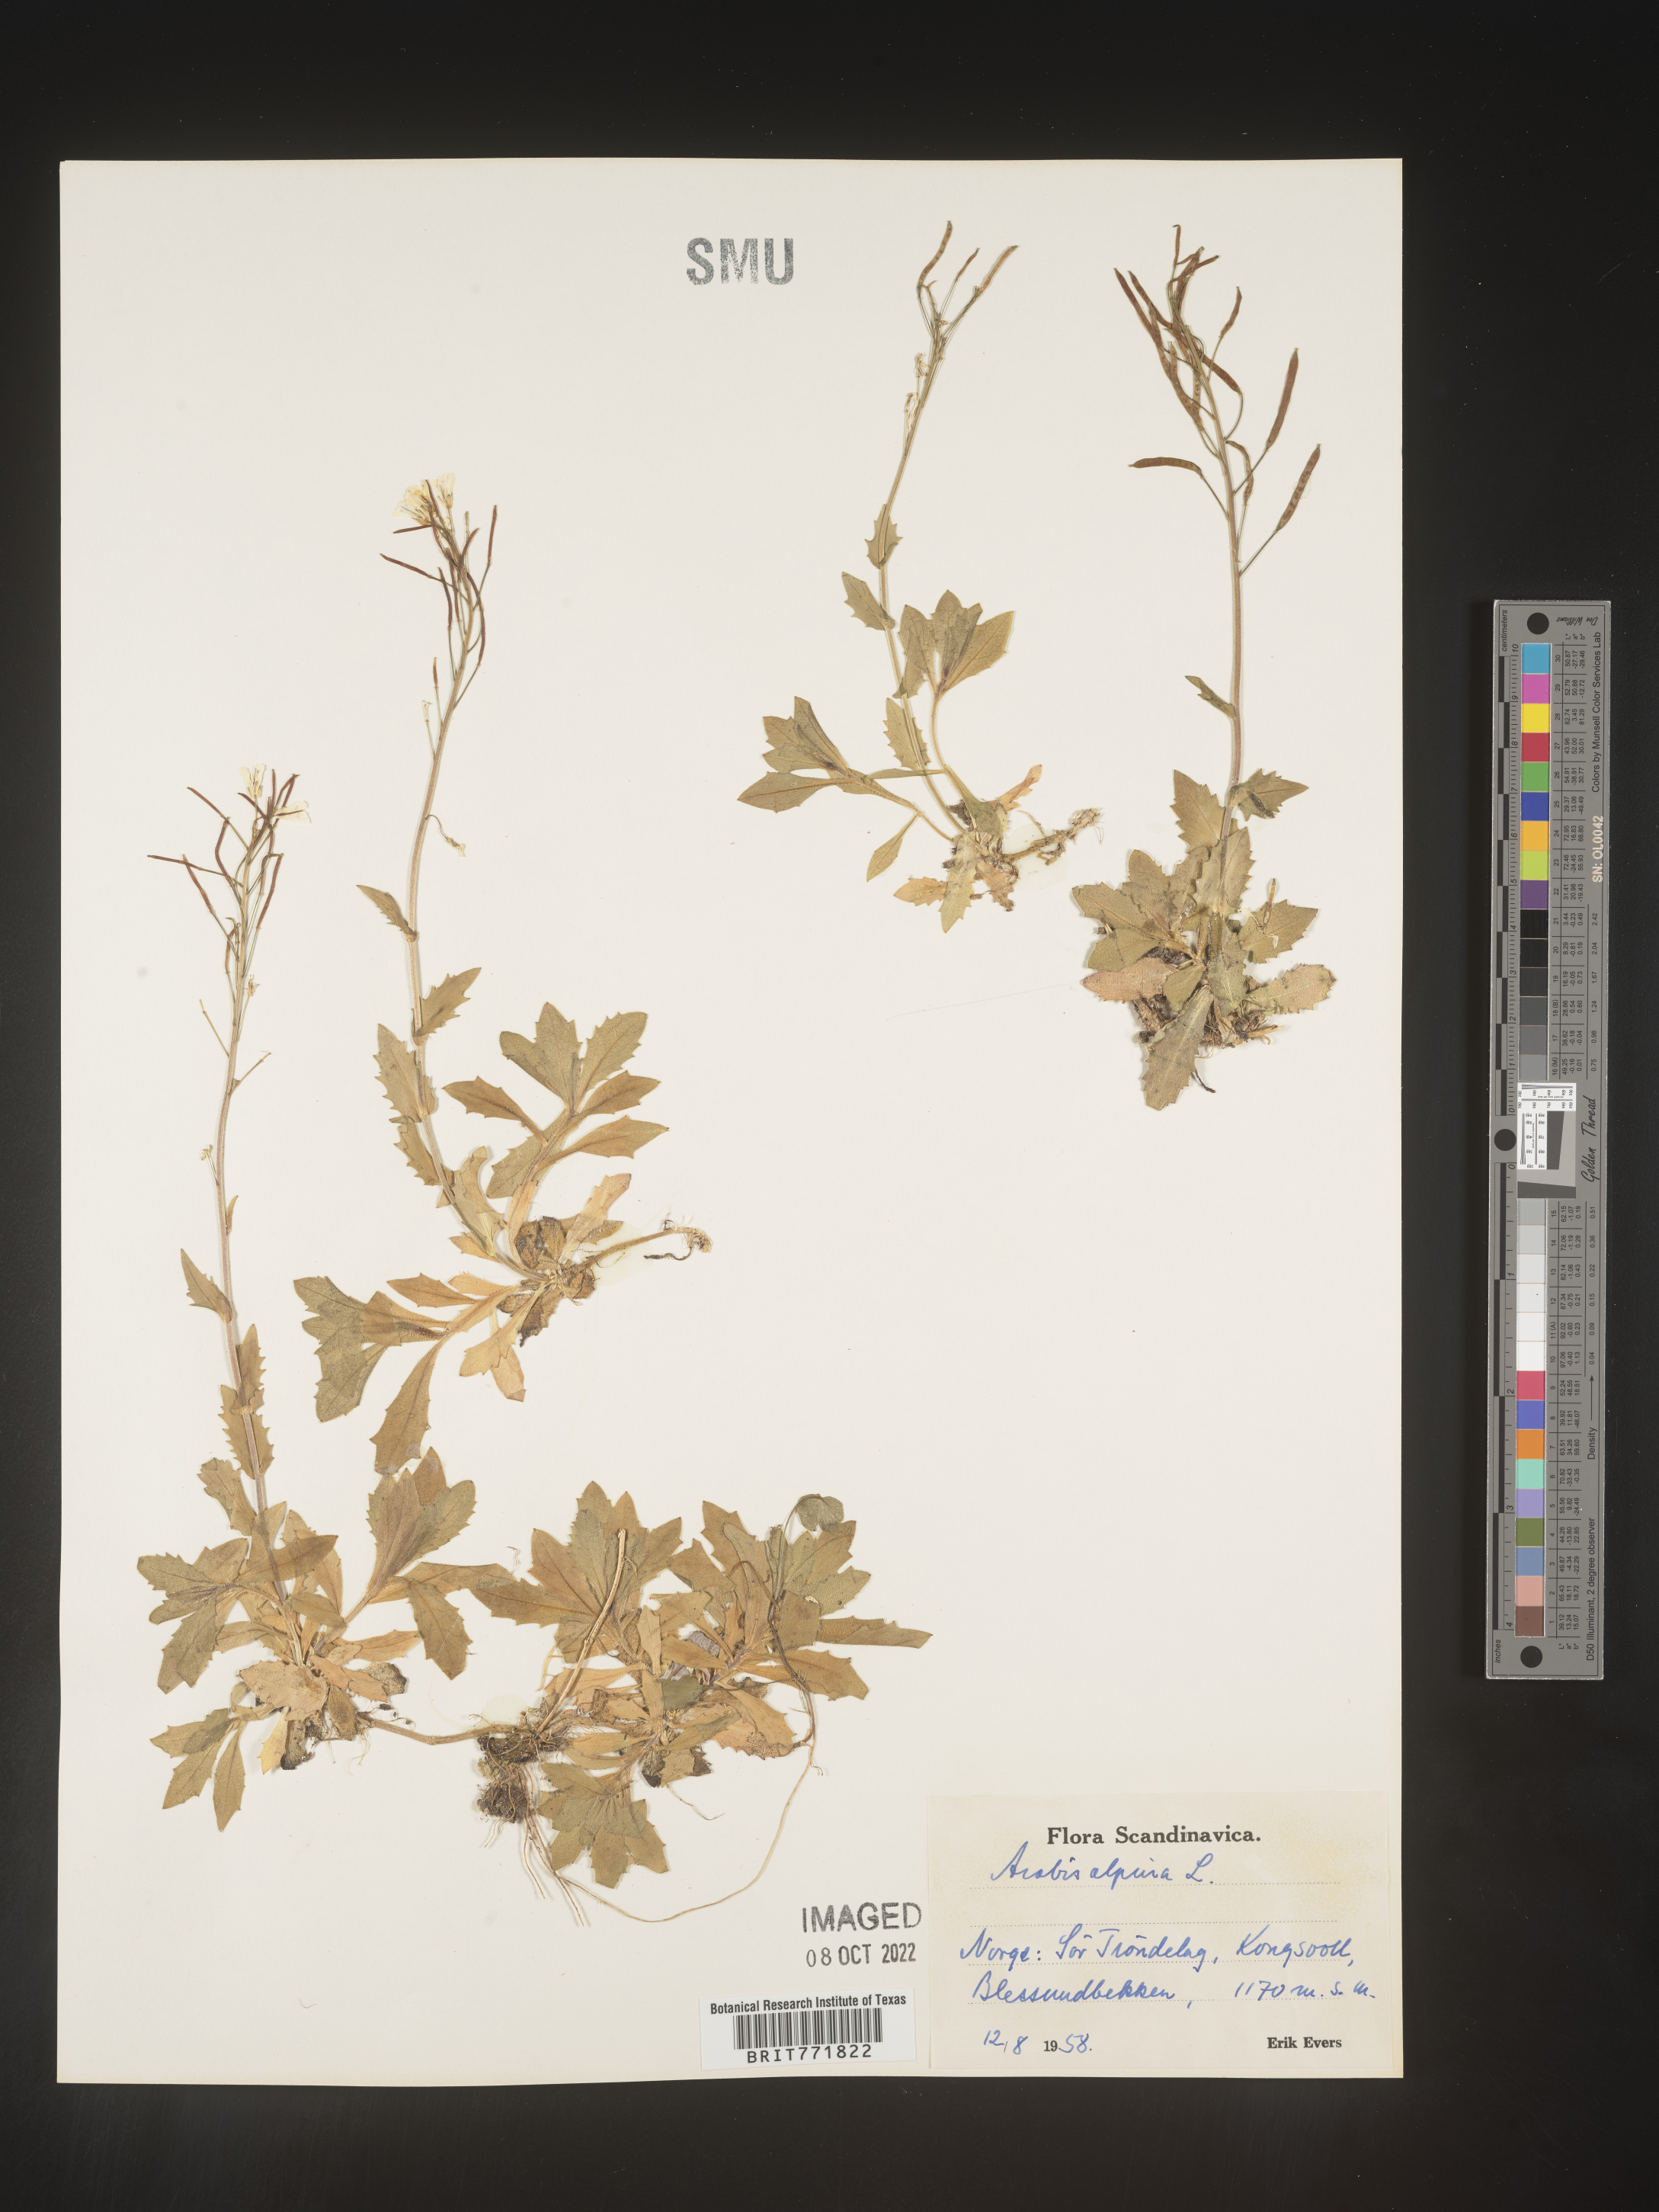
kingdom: Plantae
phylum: Tracheophyta
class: Magnoliopsida
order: Brassicales
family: Brassicaceae
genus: Arabis
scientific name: Arabis
